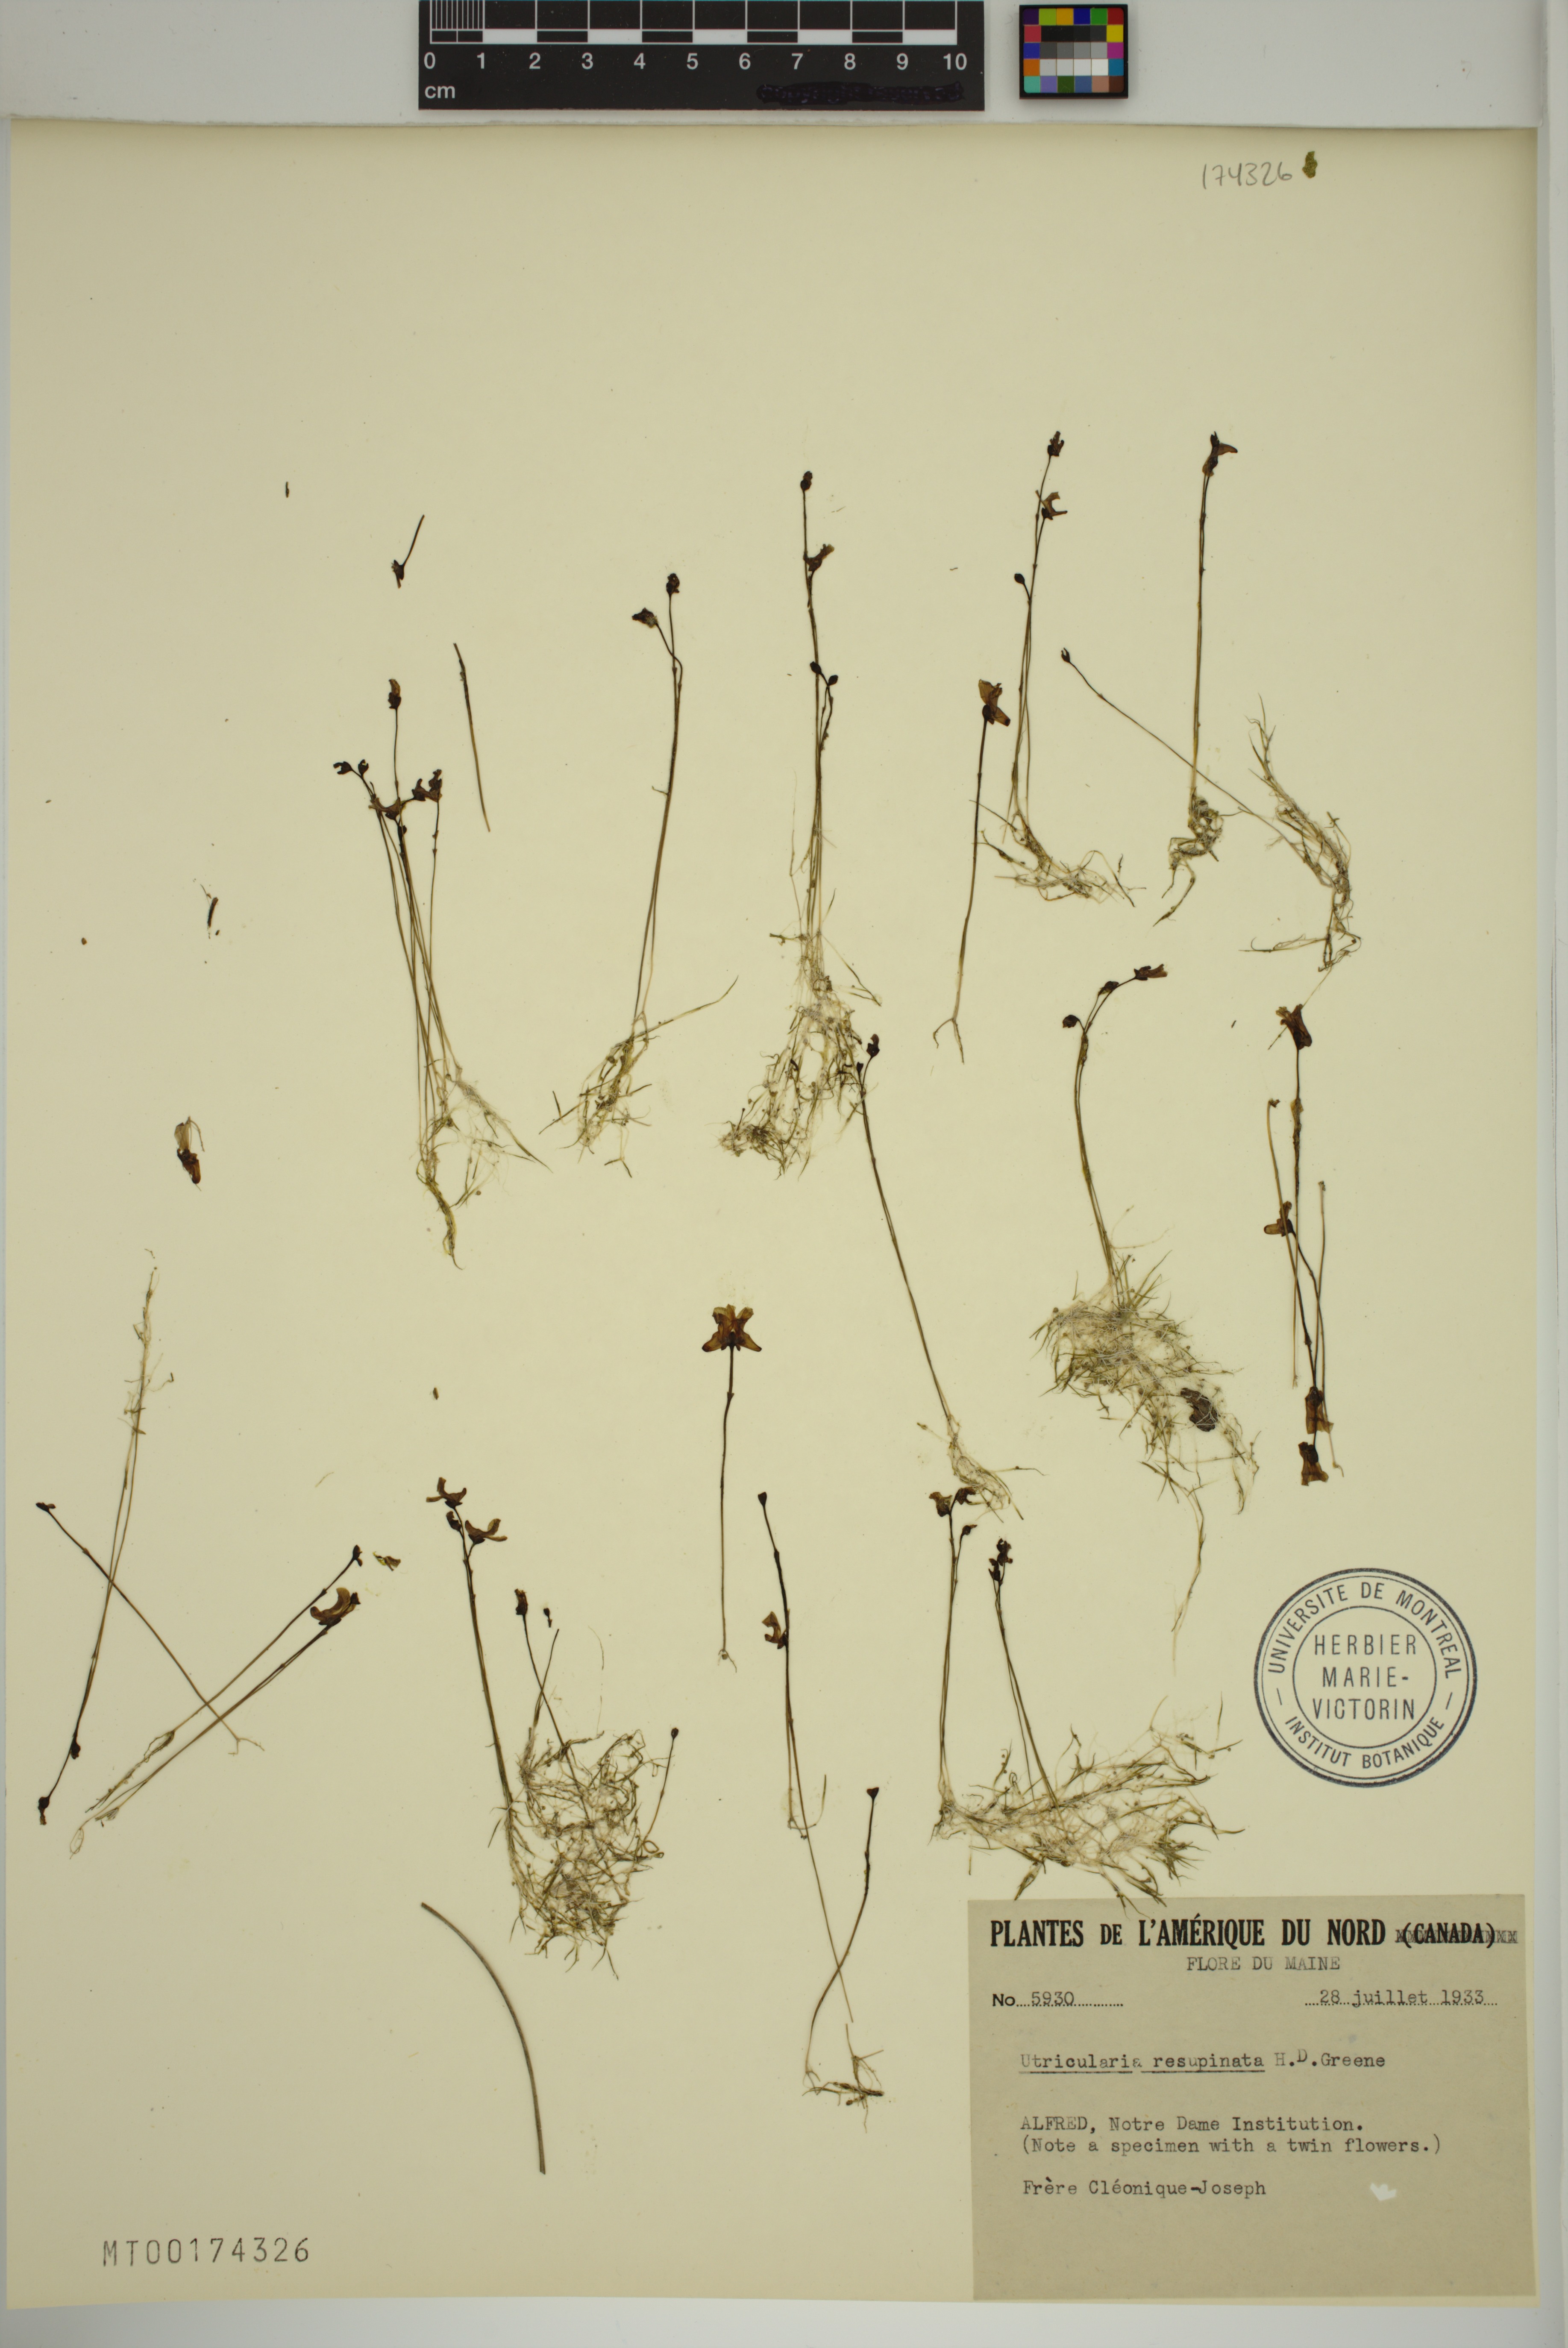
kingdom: Plantae
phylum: Tracheophyta
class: Magnoliopsida
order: Lamiales
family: Lentibulariaceae
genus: Utricularia
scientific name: Utricularia resupinata
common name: Northeastern bladderwort
